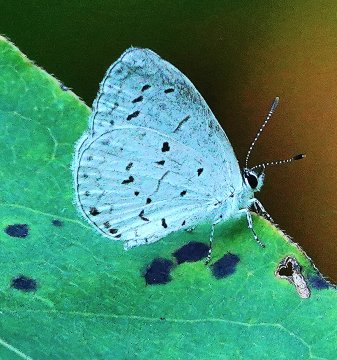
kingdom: Animalia
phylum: Arthropoda
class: Insecta
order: Lepidoptera
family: Lycaenidae
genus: Cyaniris
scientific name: Cyaniris neglecta
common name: Summer Azure
